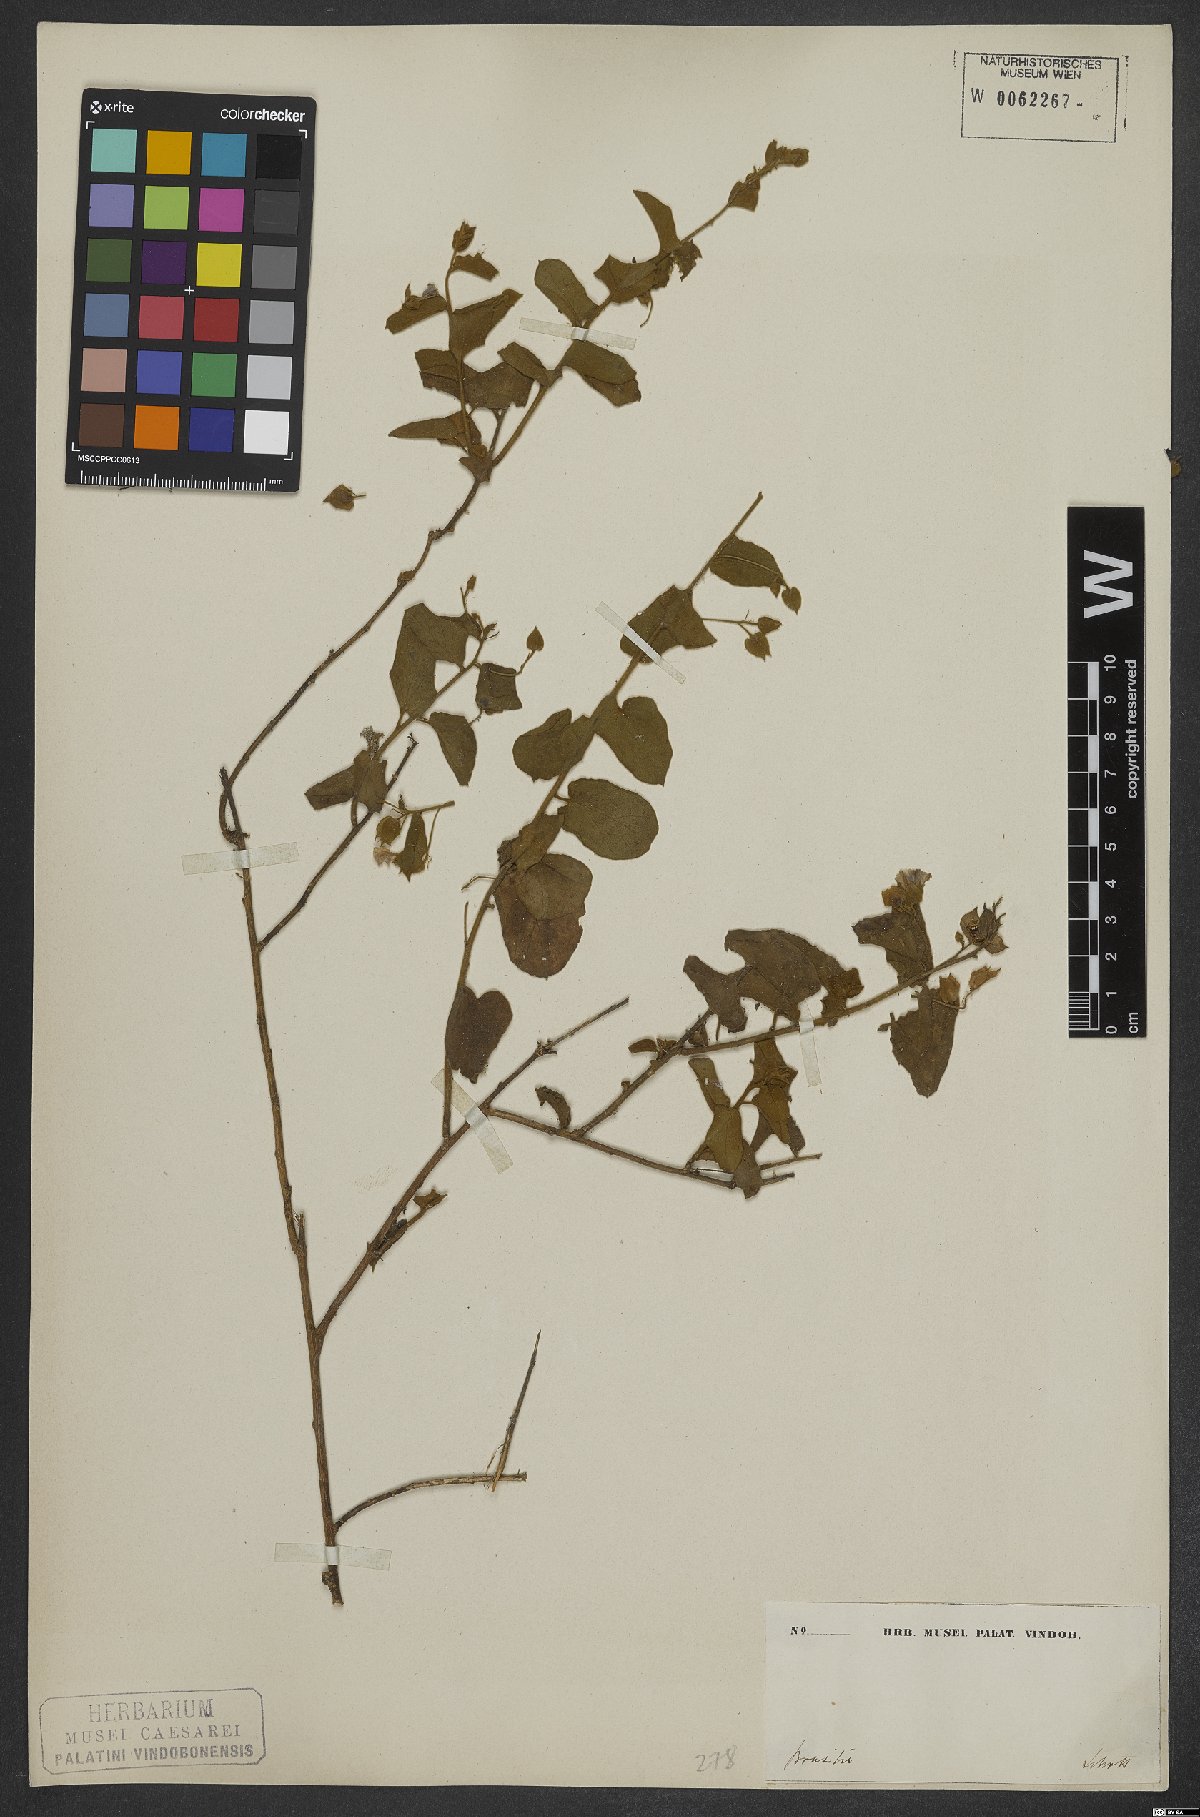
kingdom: Plantae
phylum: Tracheophyta
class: Magnoliopsida
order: Solanales
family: Convolvulaceae
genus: Jacquemontia
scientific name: Jacquemontia cumanensis
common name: Thicket clustervine
